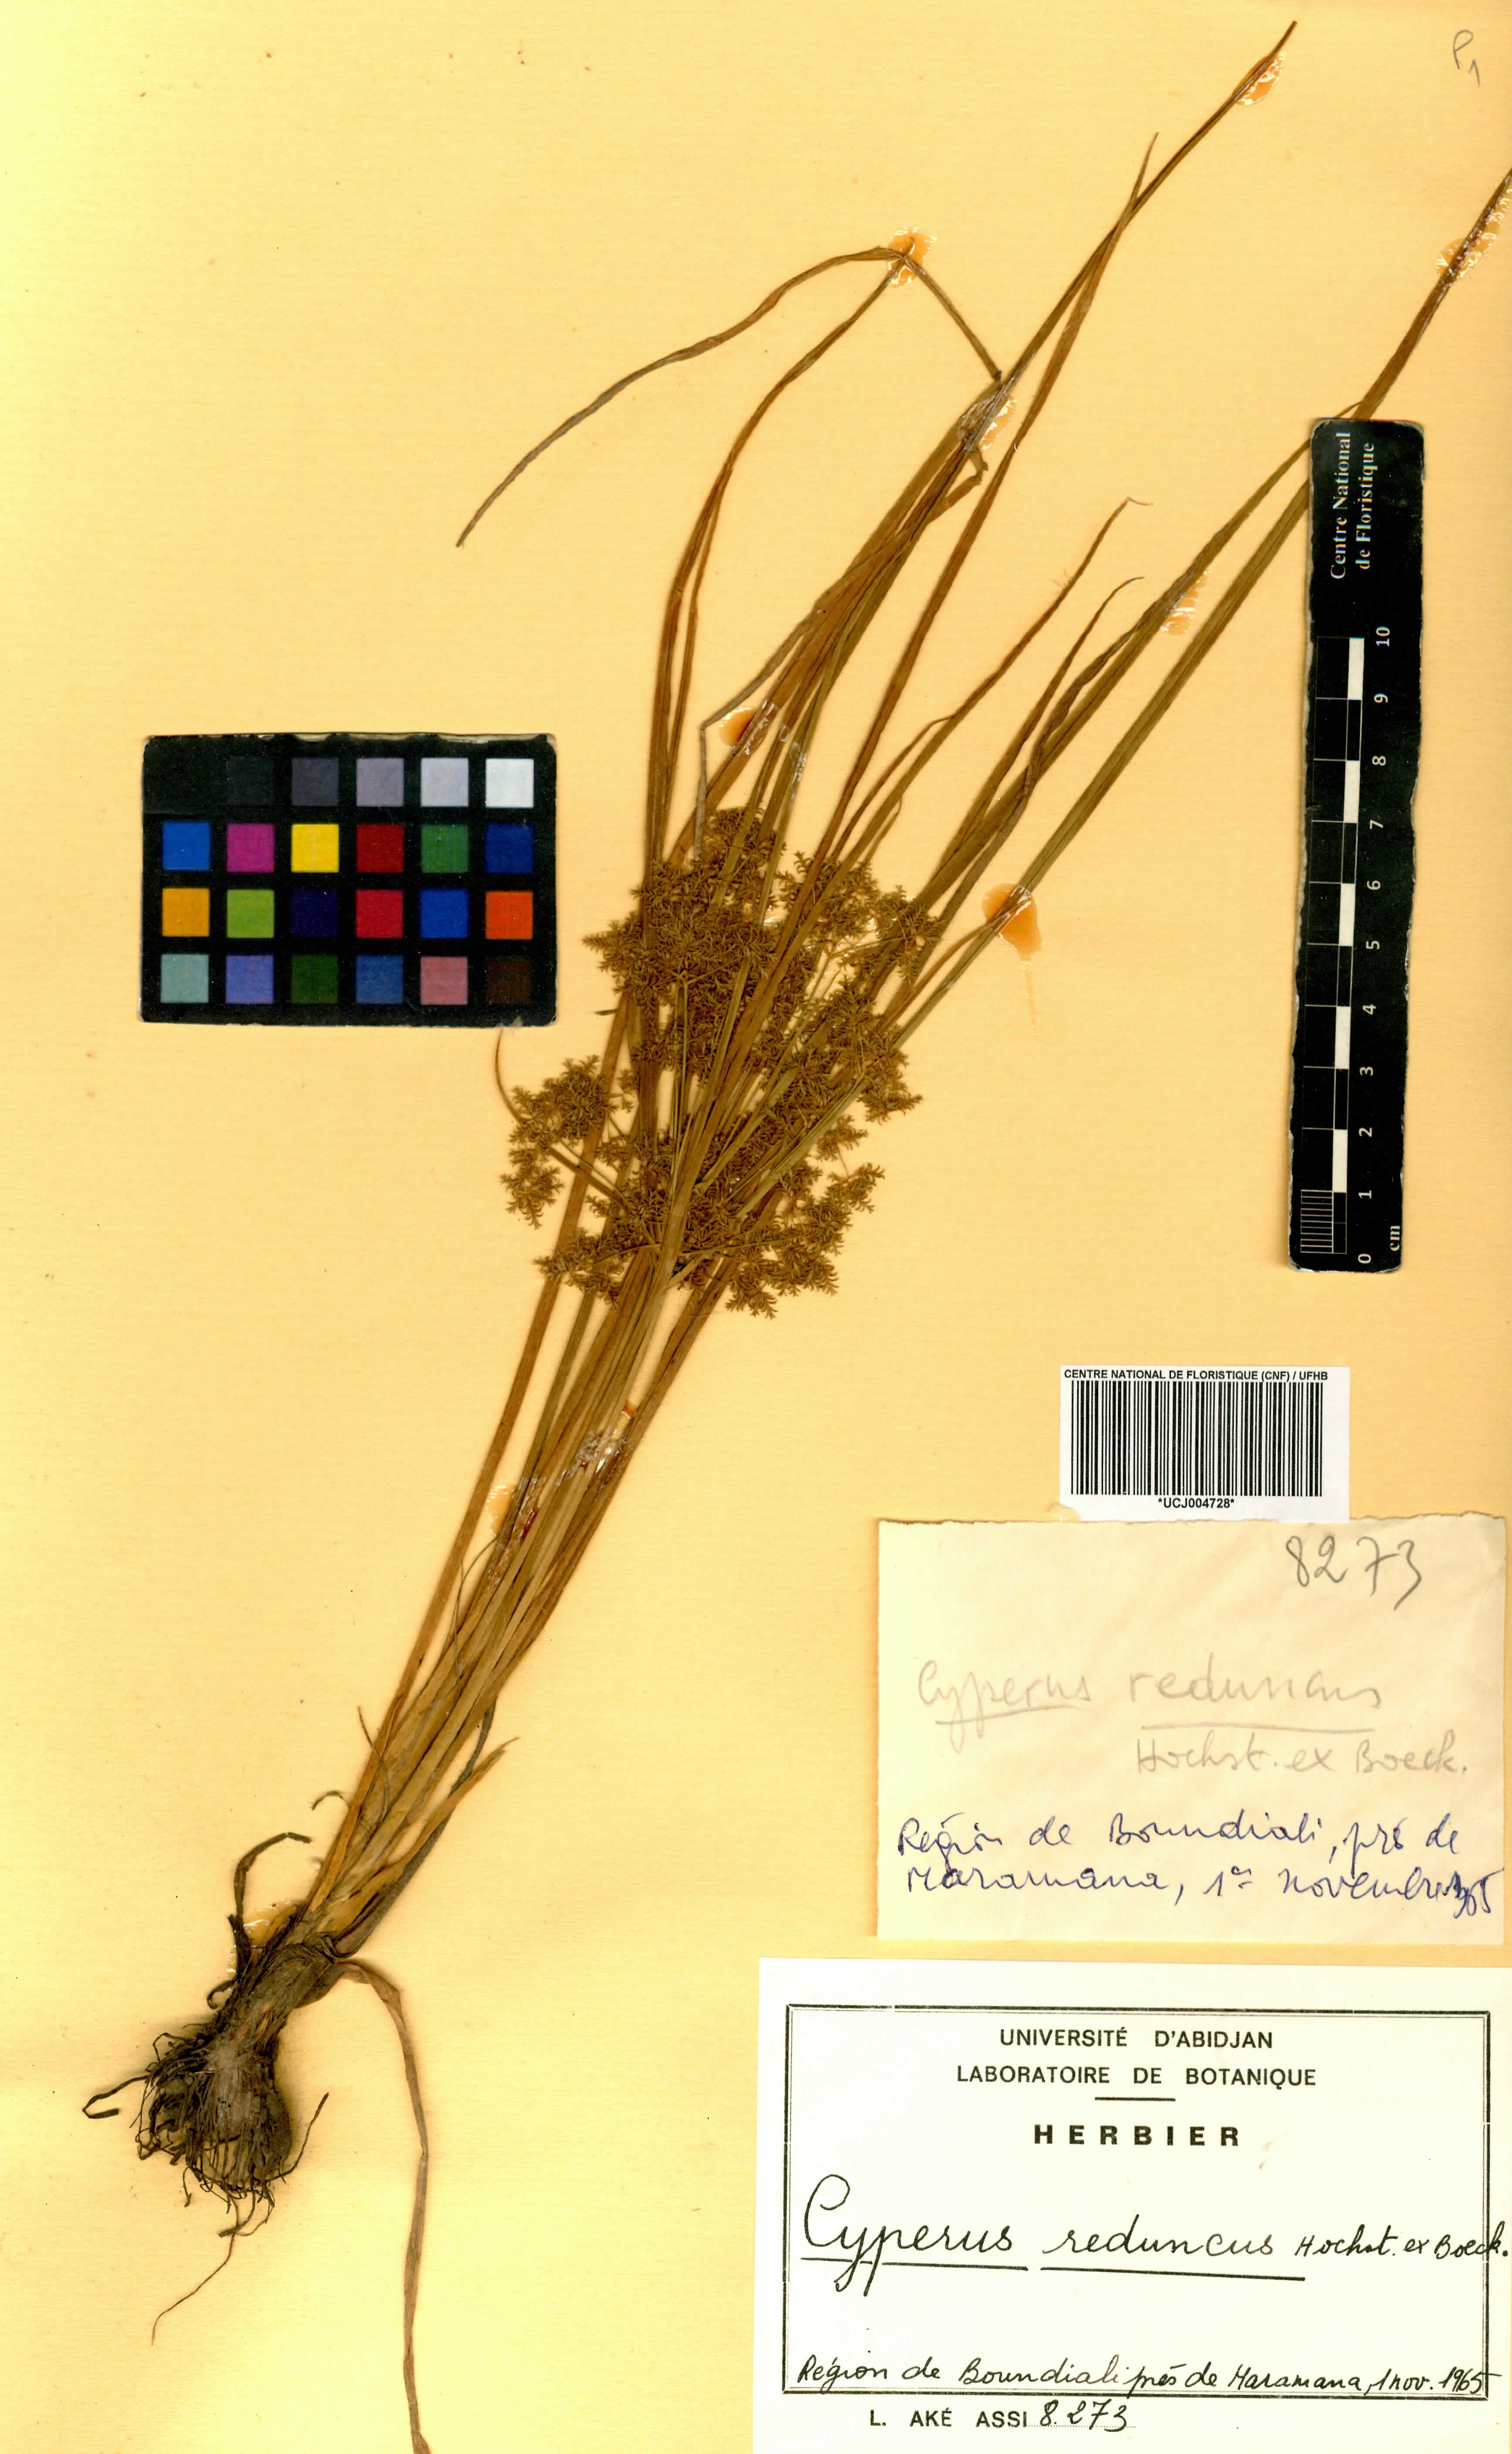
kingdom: Plantae
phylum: Tracheophyta
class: Liliopsida
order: Poales
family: Cyperaceae
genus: Cyperus
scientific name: Cyperus reduncus
